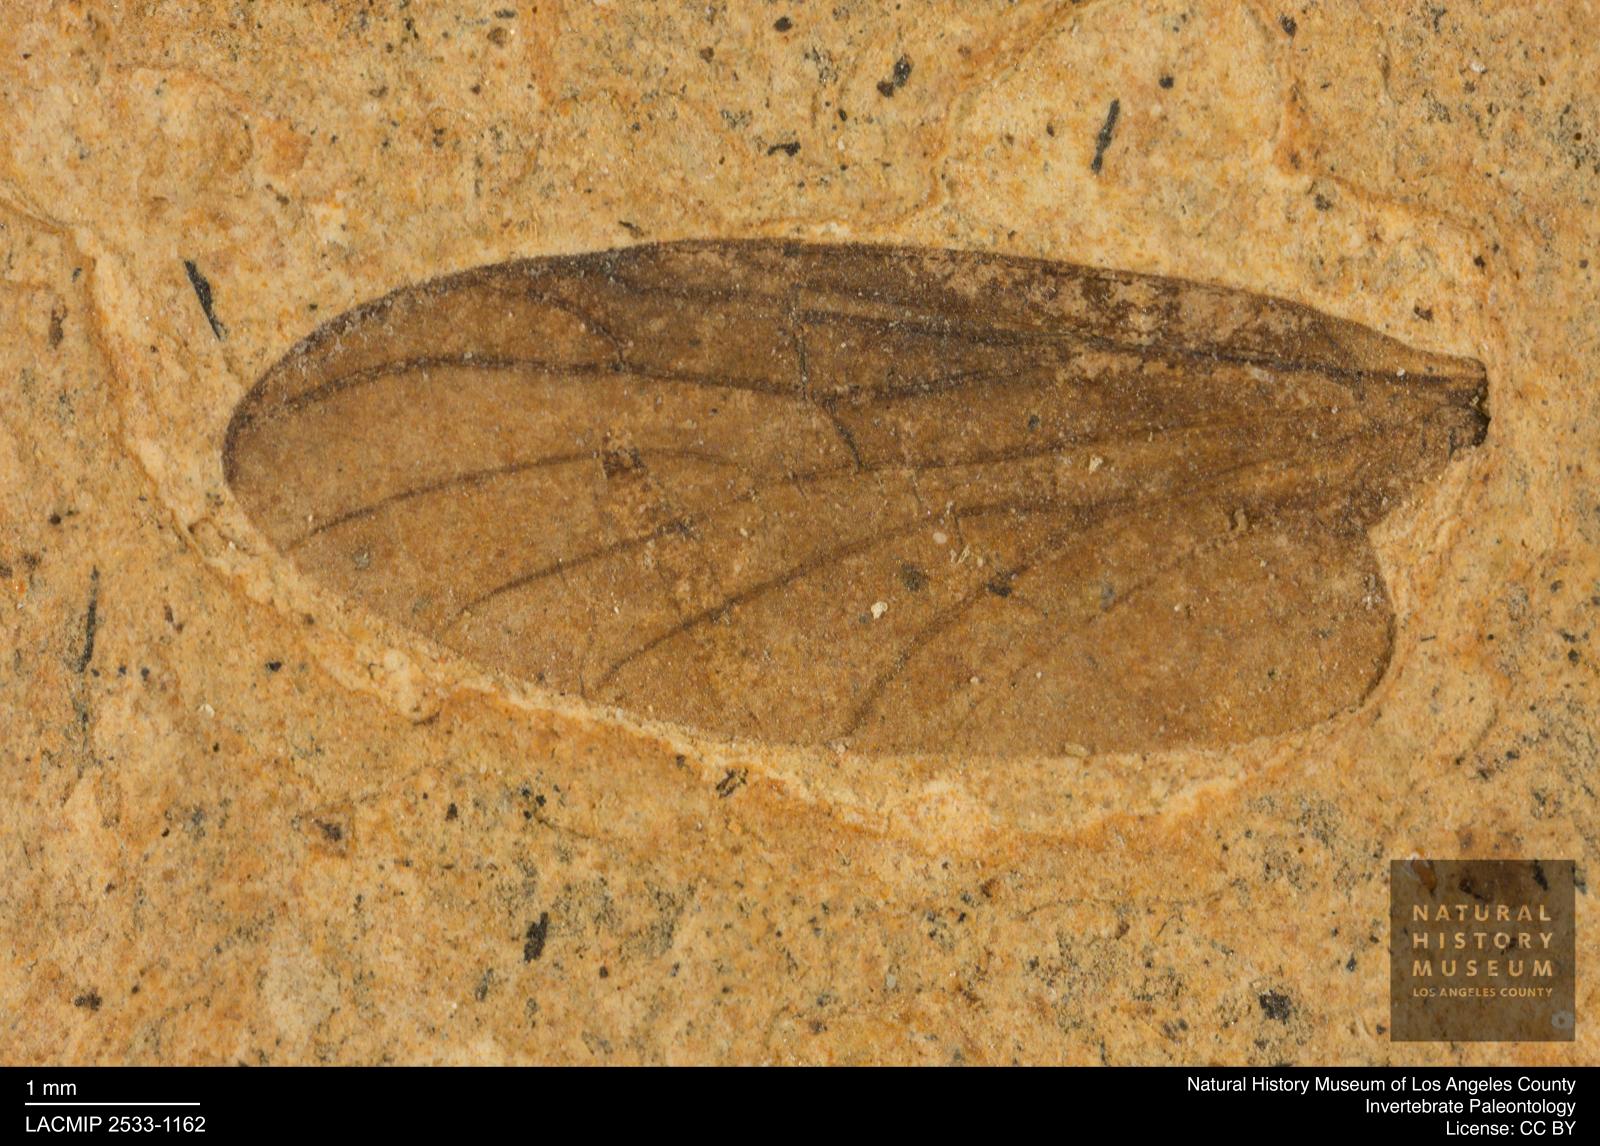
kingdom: Animalia
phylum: Arthropoda
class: Insecta
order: Diptera
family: Bibionidae
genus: Plecia
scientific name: Plecia grossa
